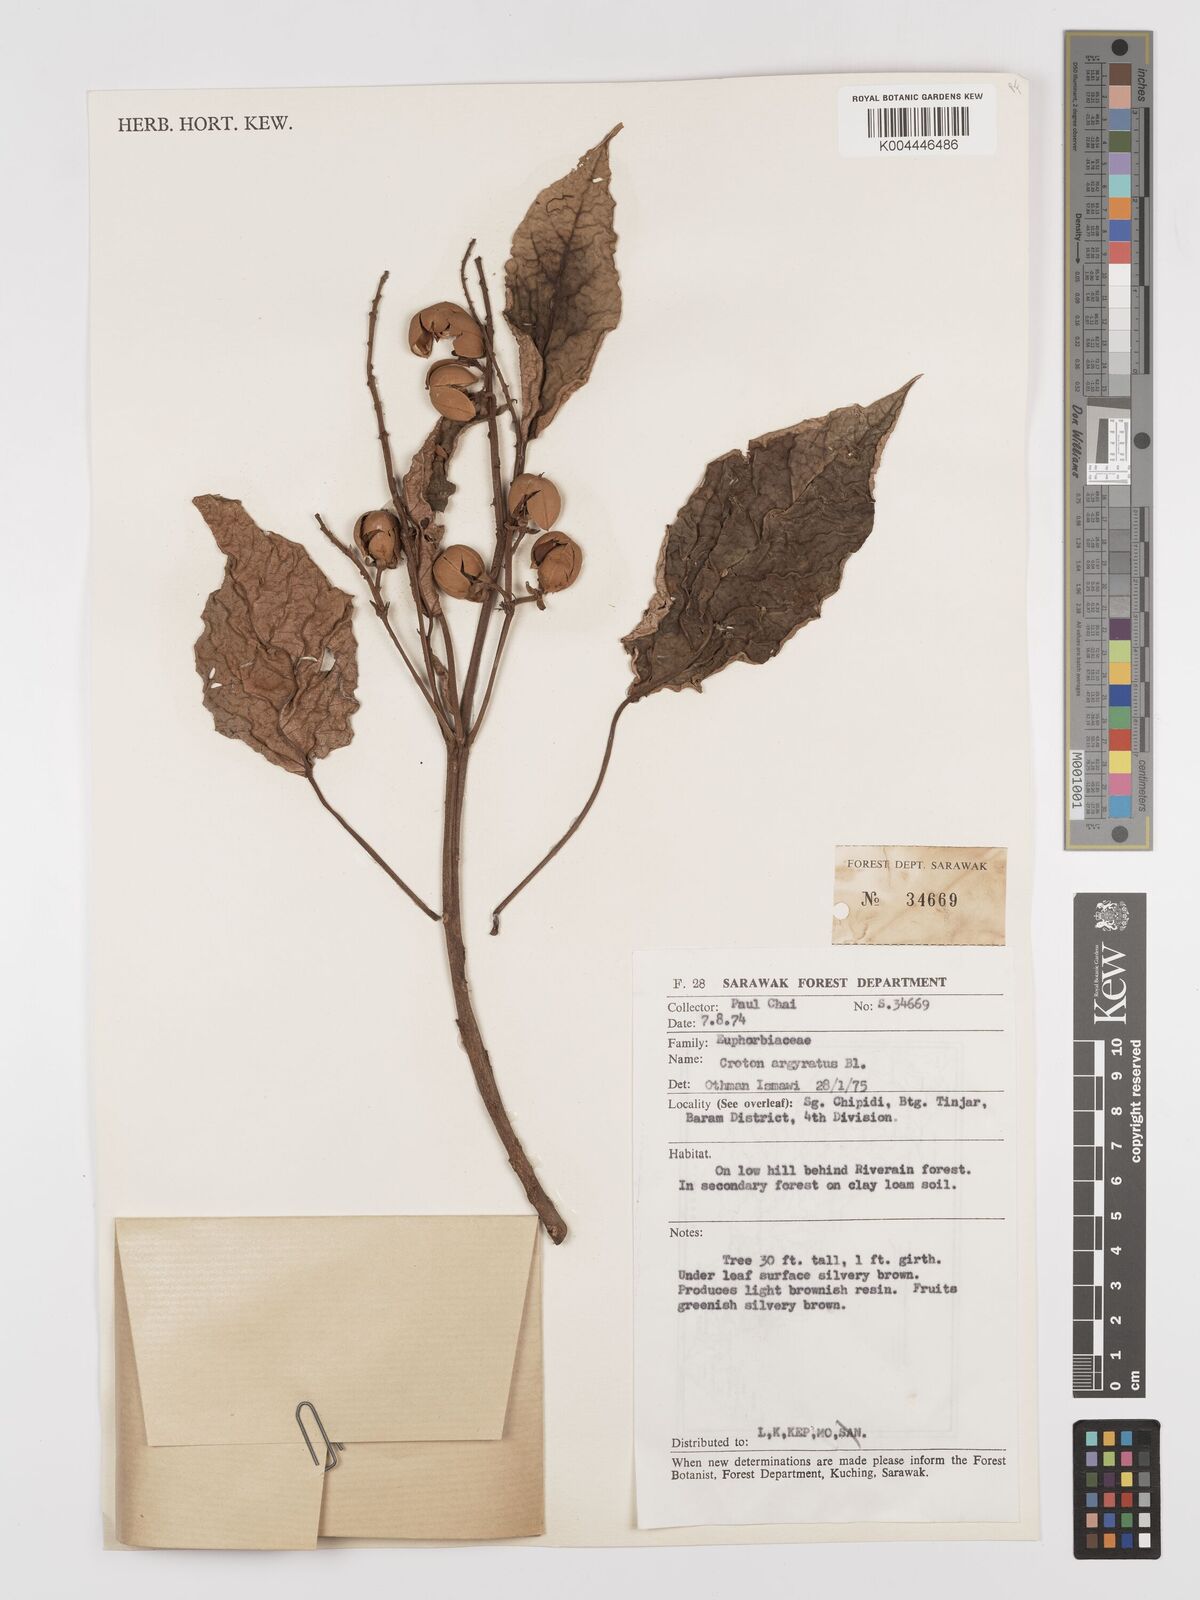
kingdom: Plantae
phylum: Tracheophyta
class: Magnoliopsida
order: Malpighiales
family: Euphorbiaceae
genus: Croton
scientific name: Croton argyratus
